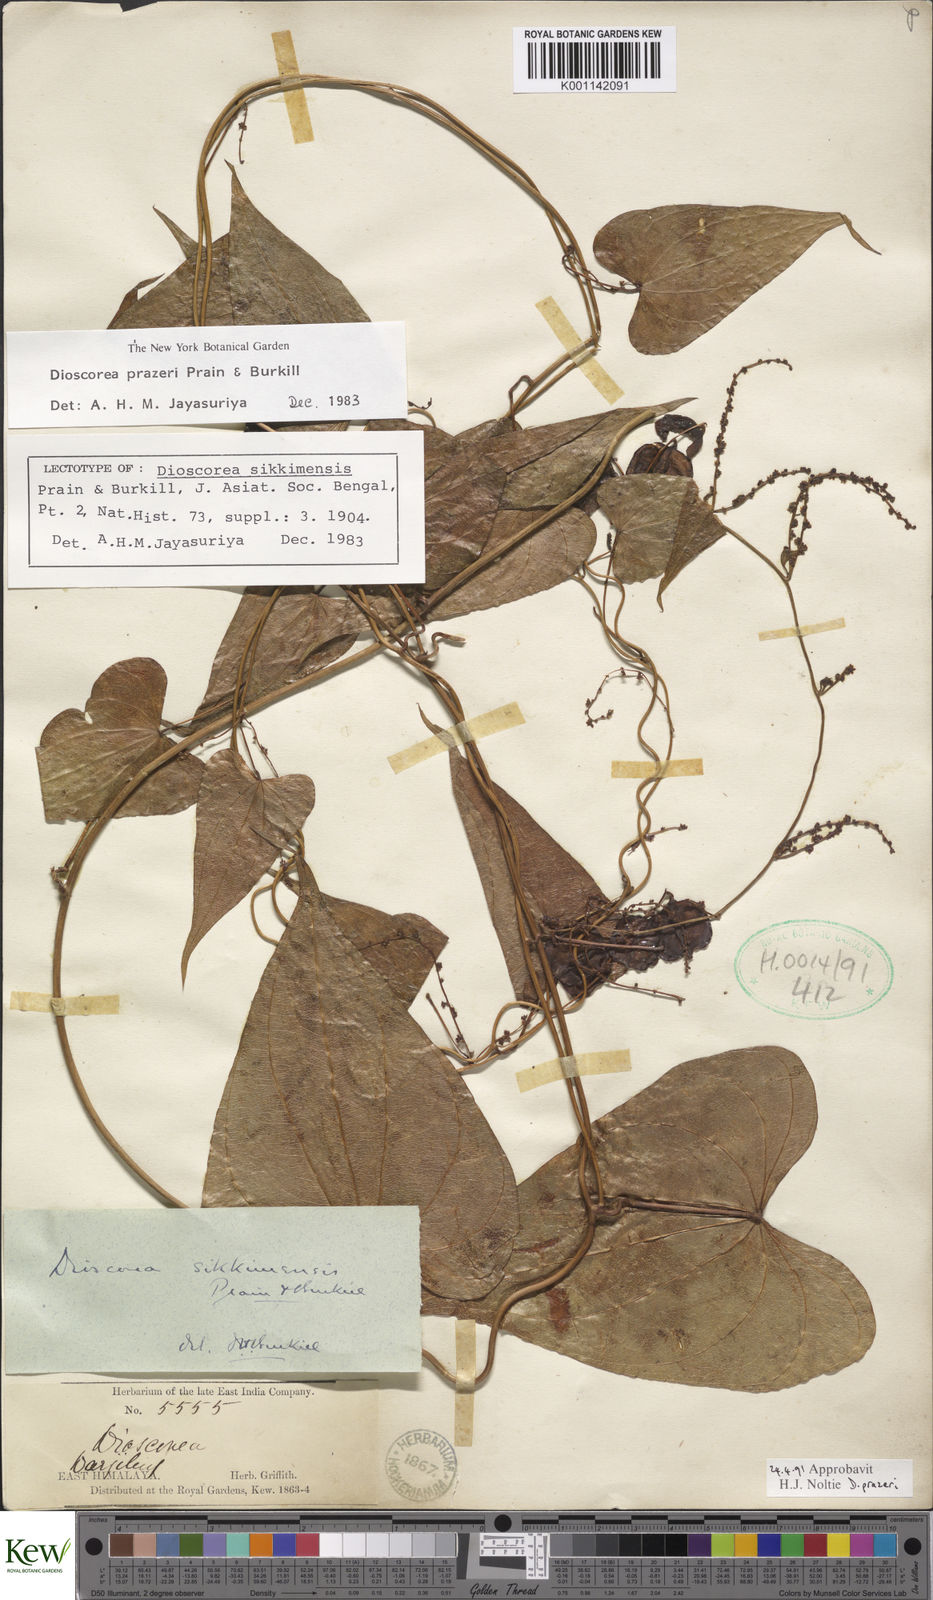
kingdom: Plantae
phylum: Tracheophyta
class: Liliopsida
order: Dioscoreales
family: Dioscoreaceae
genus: Dioscorea
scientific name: Dioscorea prazeri
